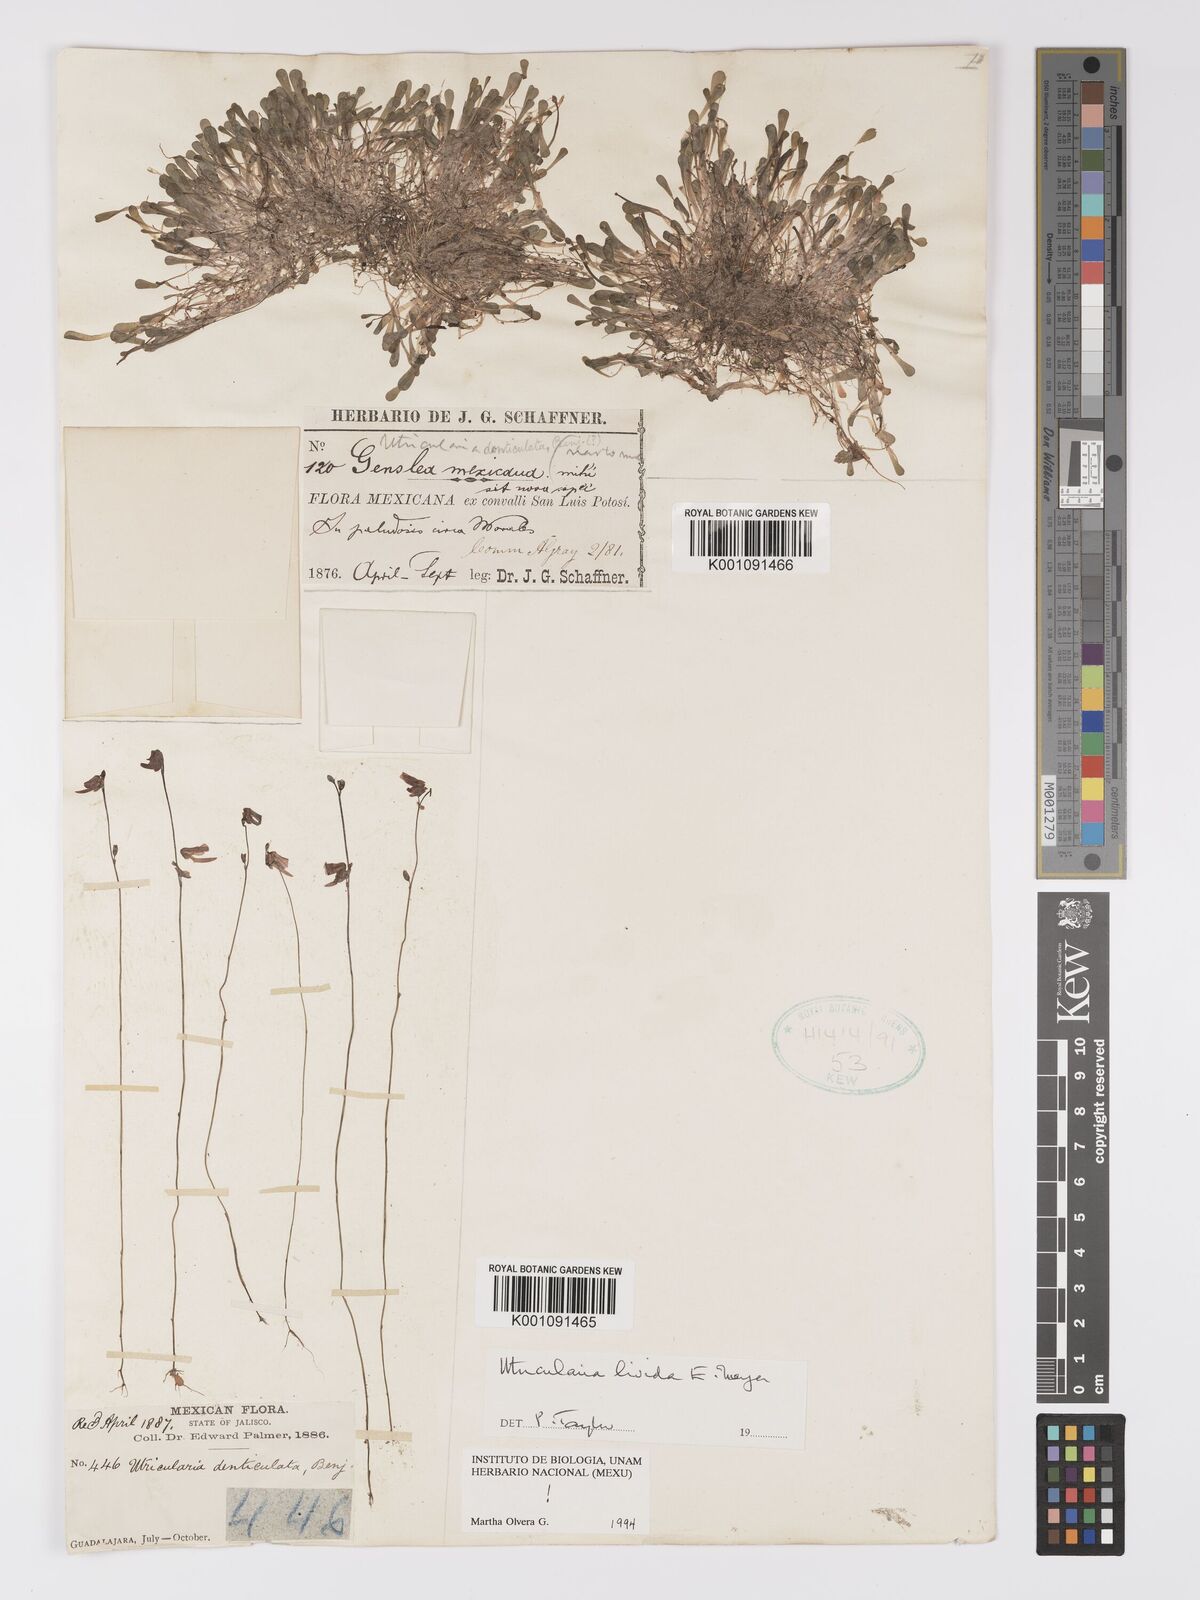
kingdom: Plantae
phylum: Tracheophyta
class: Magnoliopsida
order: Lamiales
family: Lentibulariaceae
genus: Utricularia
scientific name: Utricularia livida
